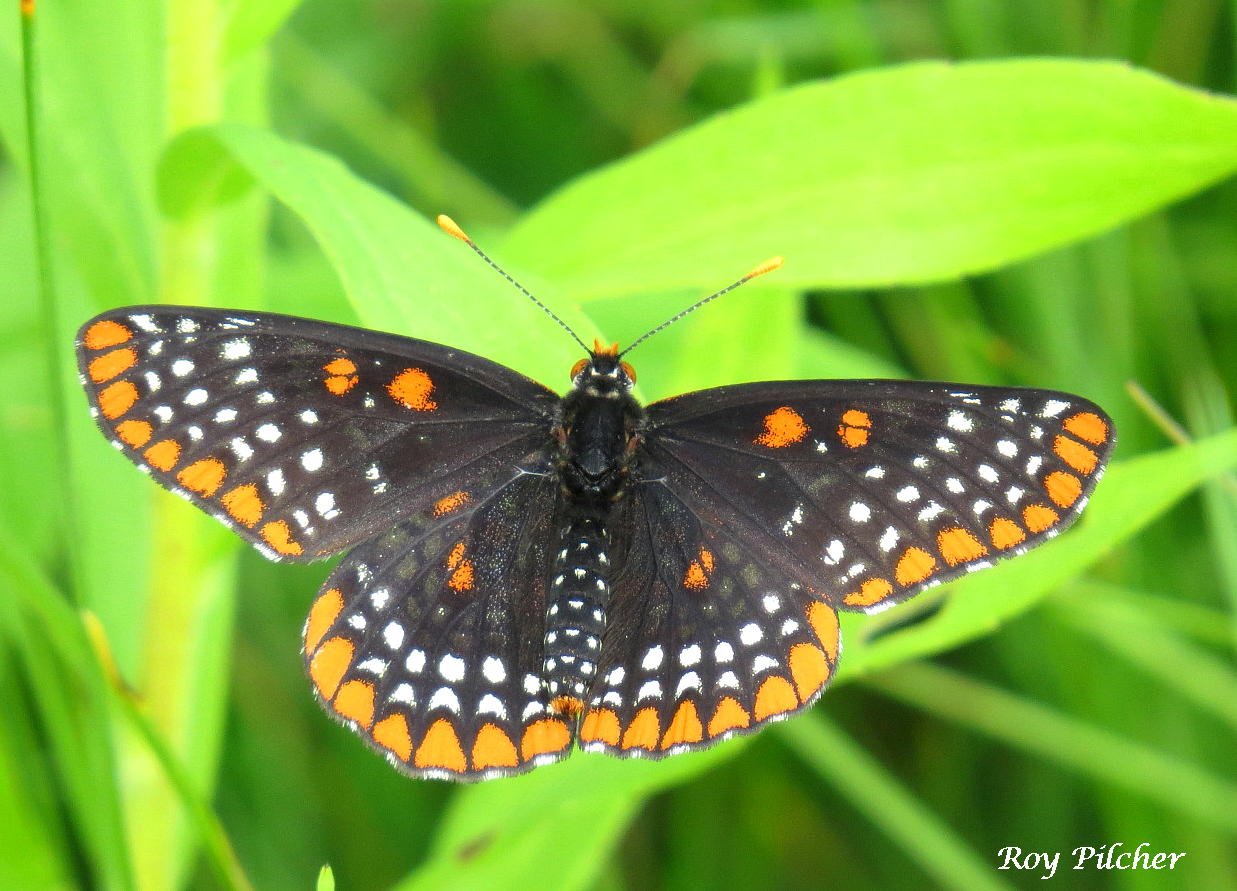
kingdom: Animalia
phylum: Arthropoda
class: Insecta
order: Lepidoptera
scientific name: Lepidoptera
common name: Butterflies
